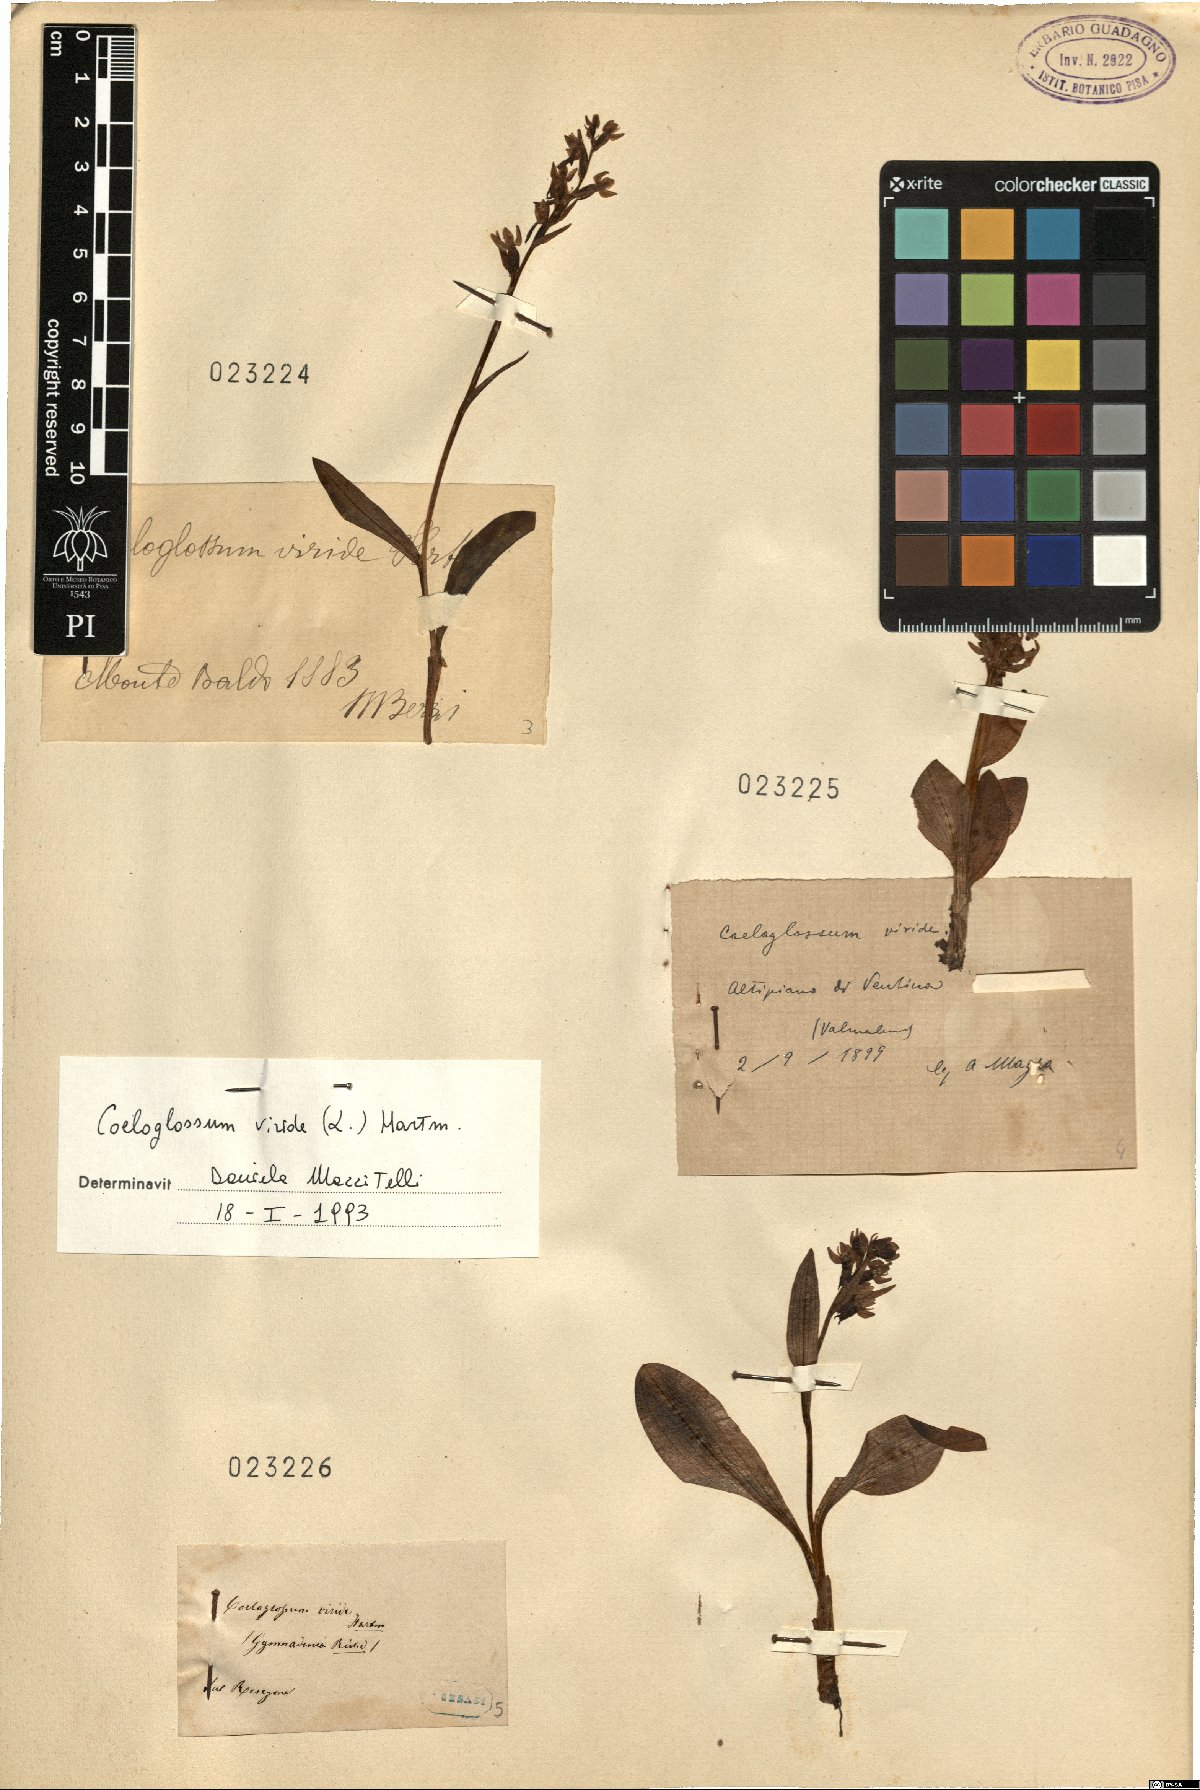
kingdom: Plantae
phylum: Tracheophyta
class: Liliopsida
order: Asparagales
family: Orchidaceae
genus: Dactylorhiza
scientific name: Dactylorhiza viridis
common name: Longbract frog orchid
